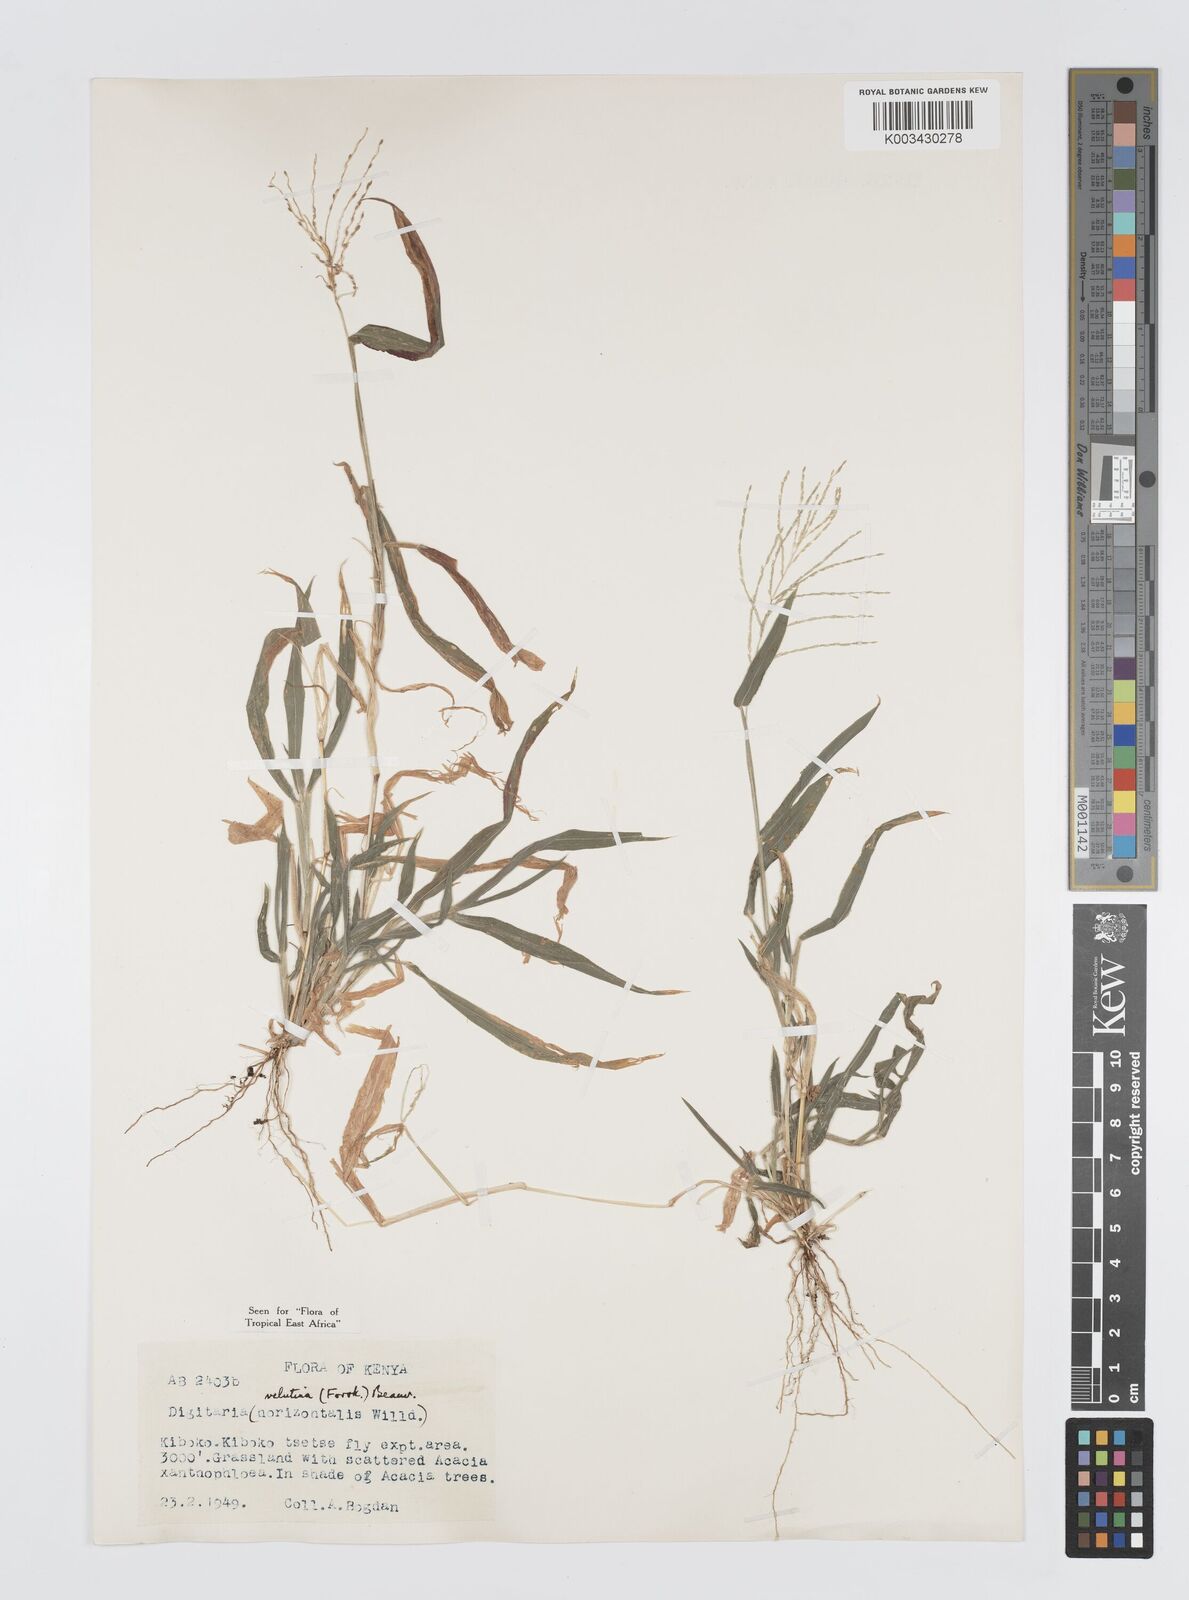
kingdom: Plantae
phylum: Tracheophyta
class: Liliopsida
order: Poales
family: Poaceae
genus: Digitaria
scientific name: Digitaria velutina
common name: Long-plume finger grass
